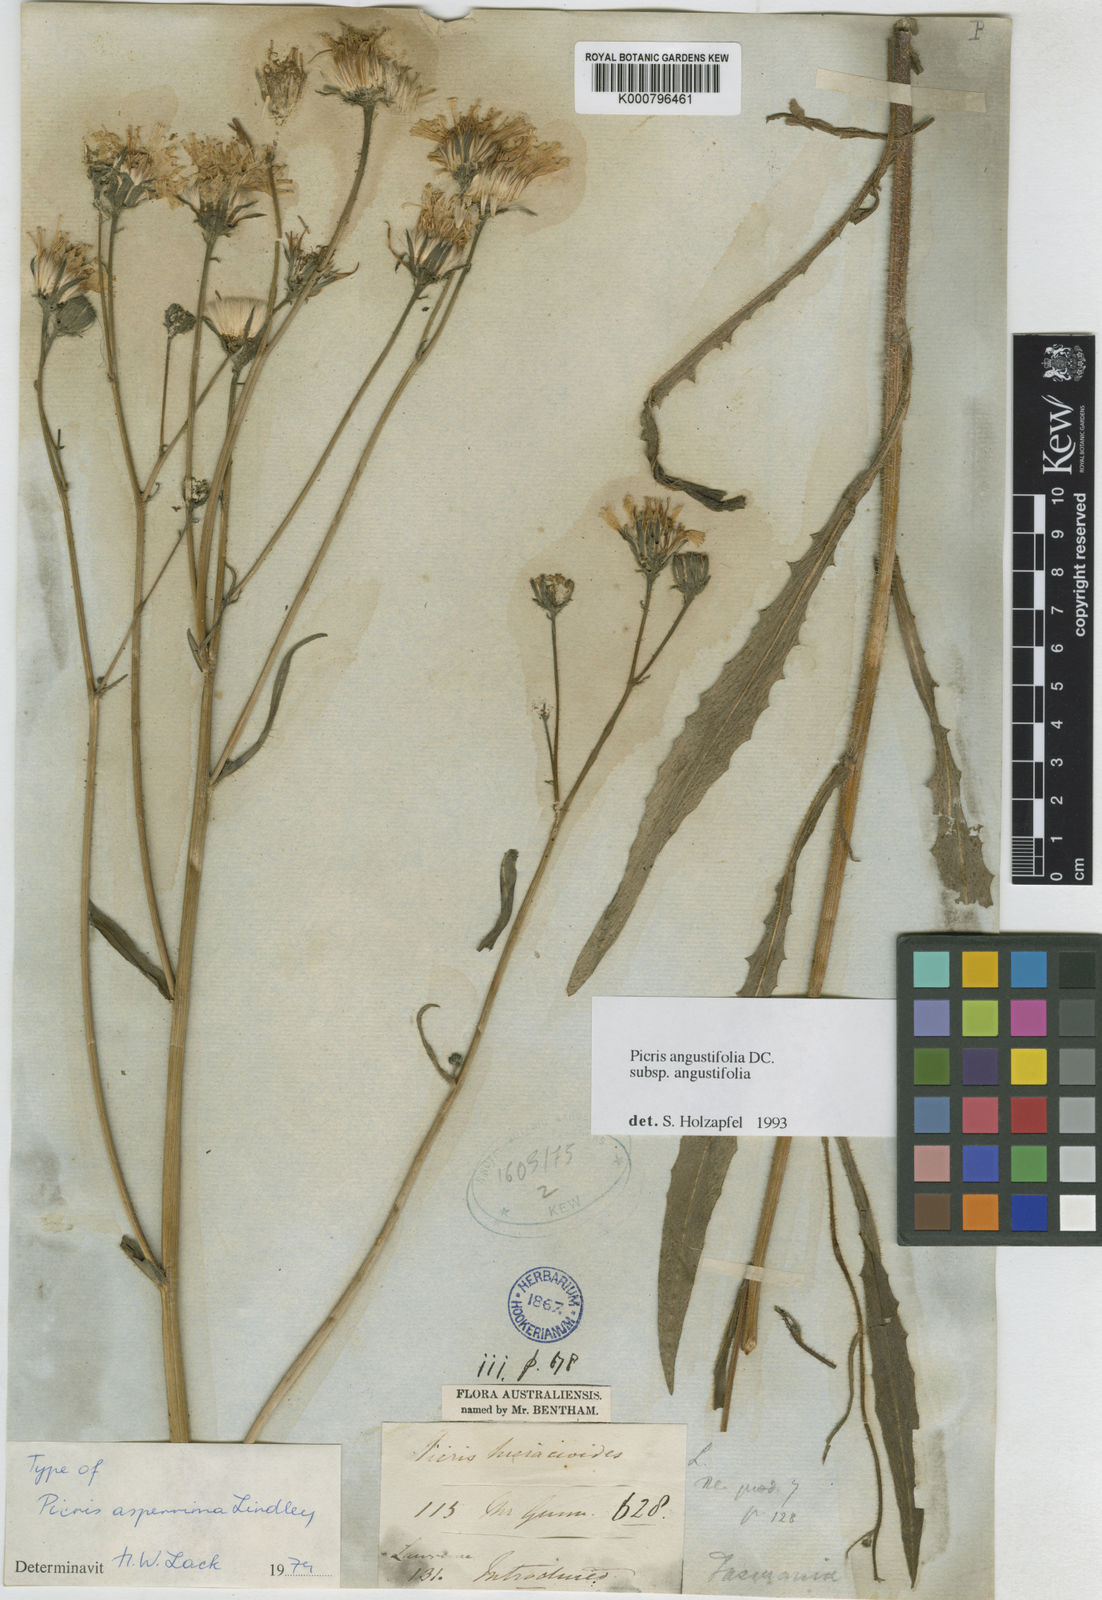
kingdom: Plantae
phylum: Tracheophyta
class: Magnoliopsida
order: Asterales
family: Asteraceae
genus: Picris
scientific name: Picris angustifolia
